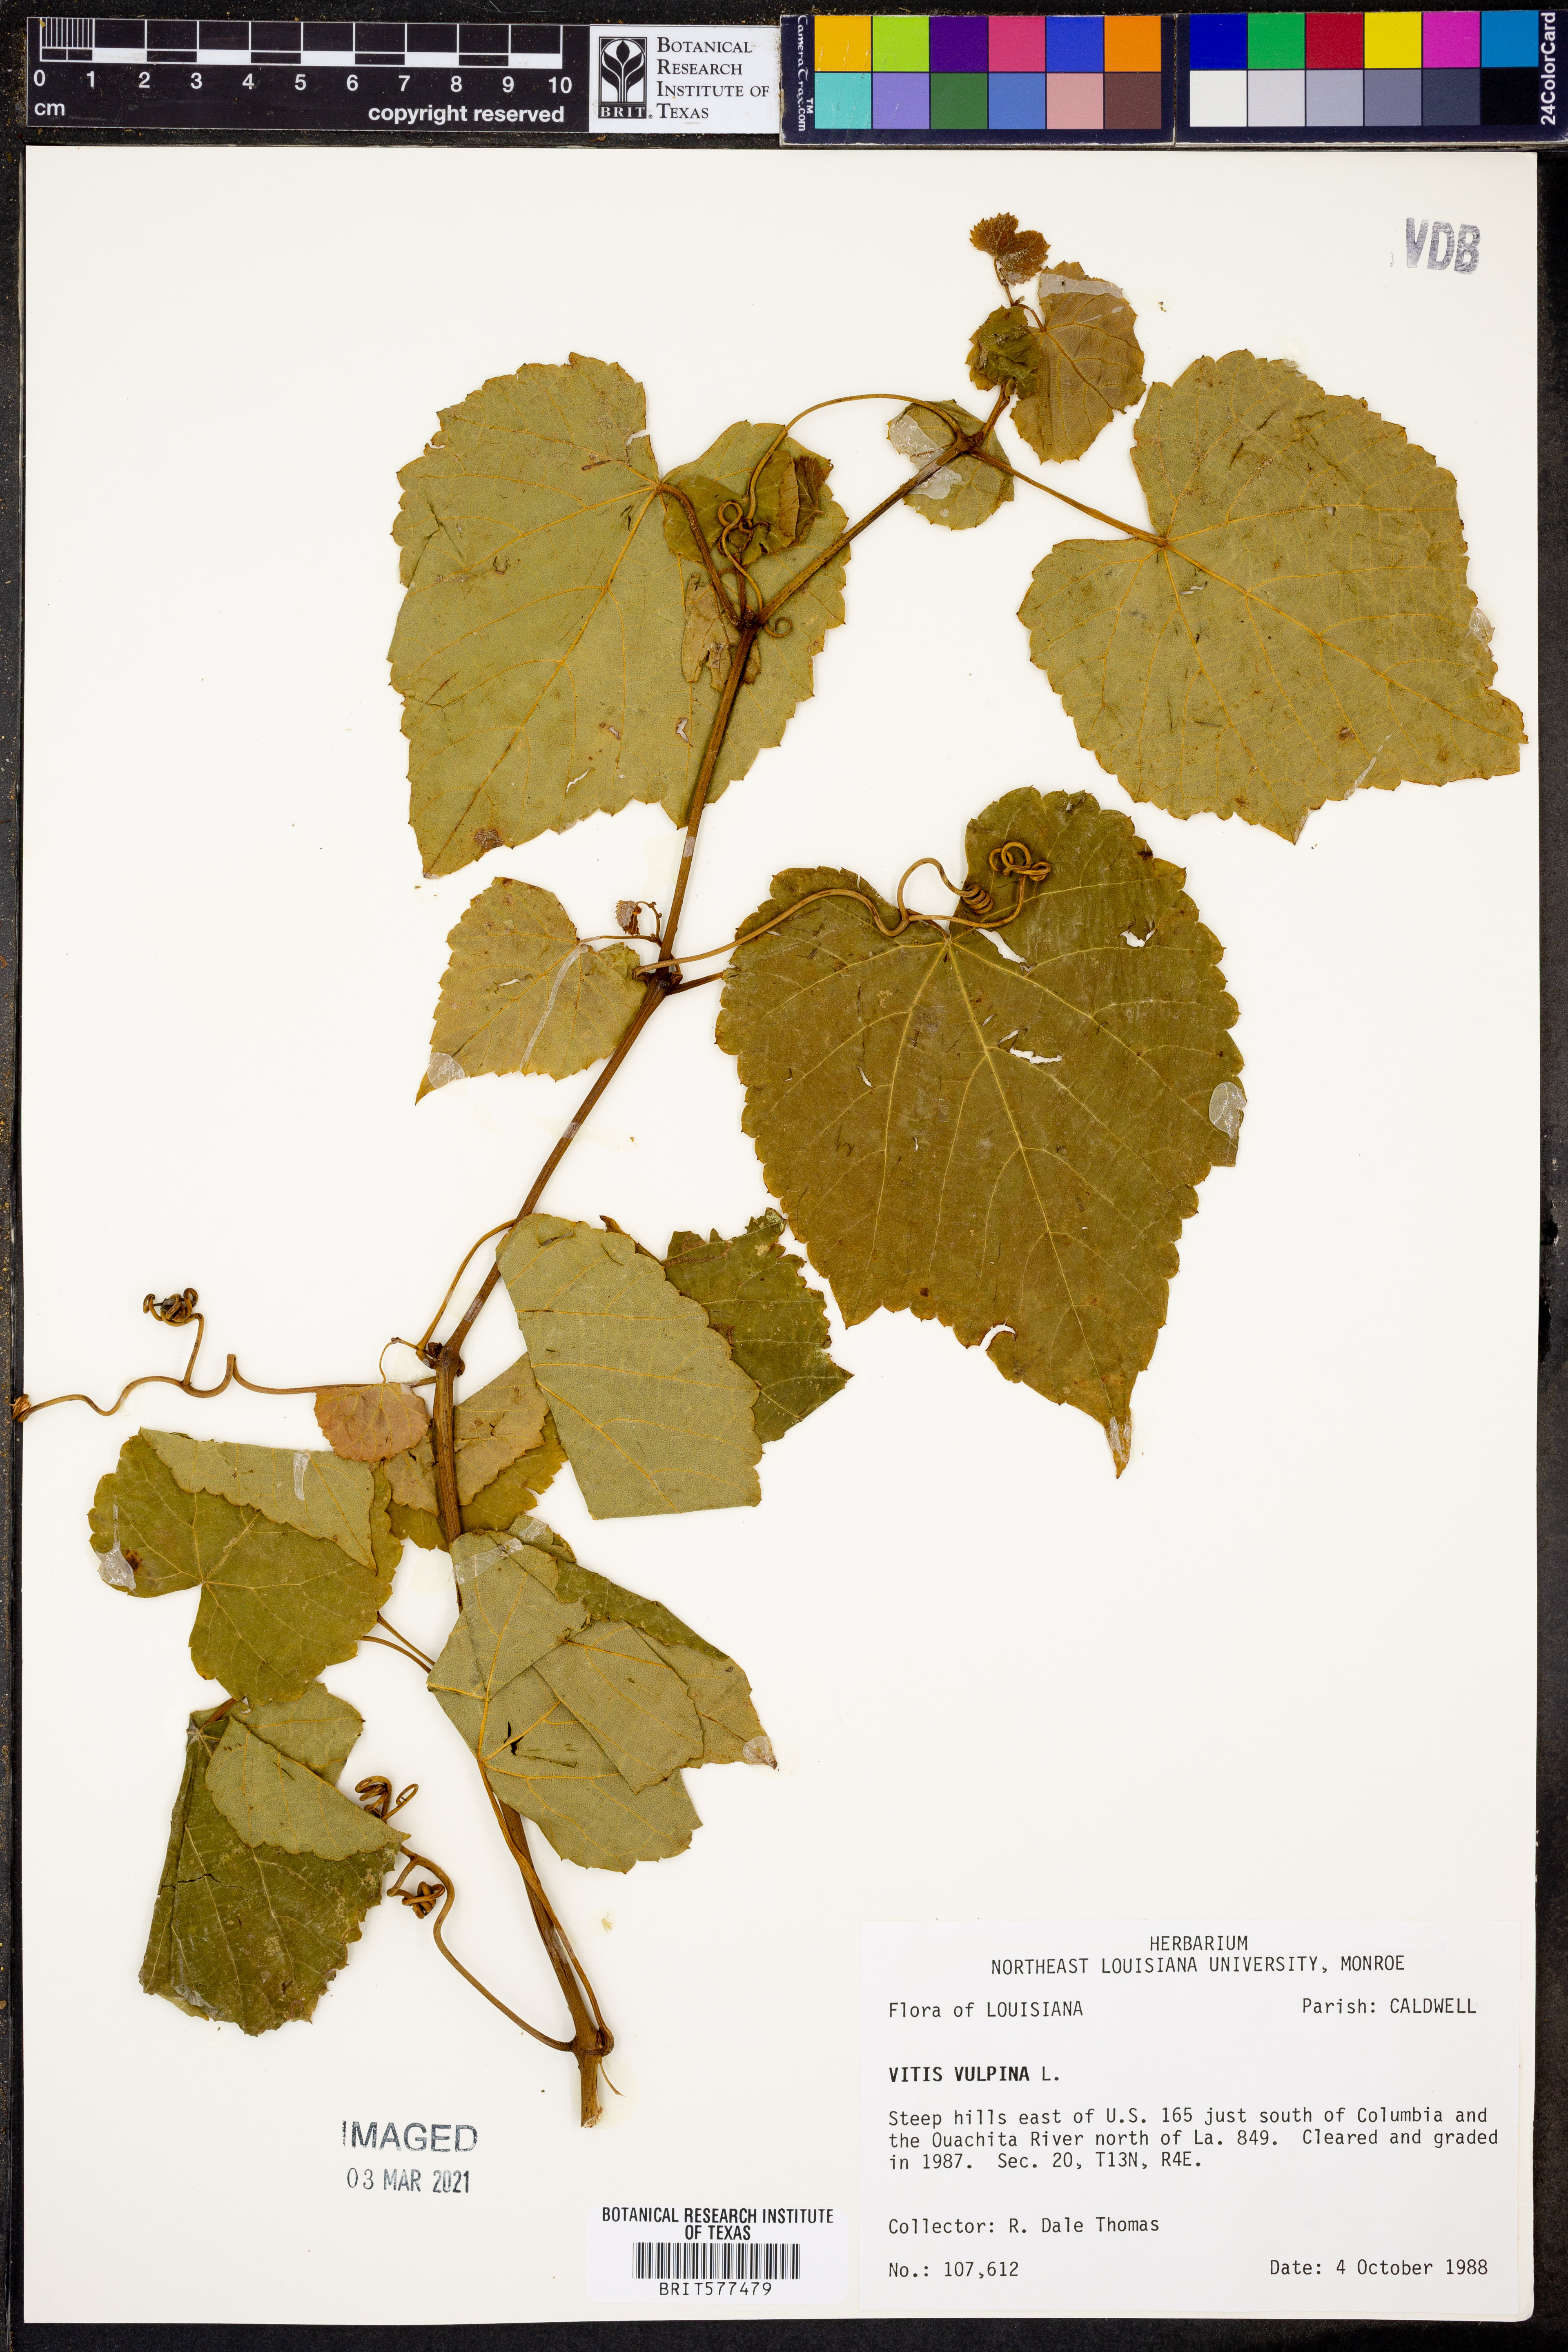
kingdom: Plantae
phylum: Tracheophyta
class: Magnoliopsida
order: Vitales
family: Vitaceae
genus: Vitis
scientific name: Vitis vulpina
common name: Frost grape
